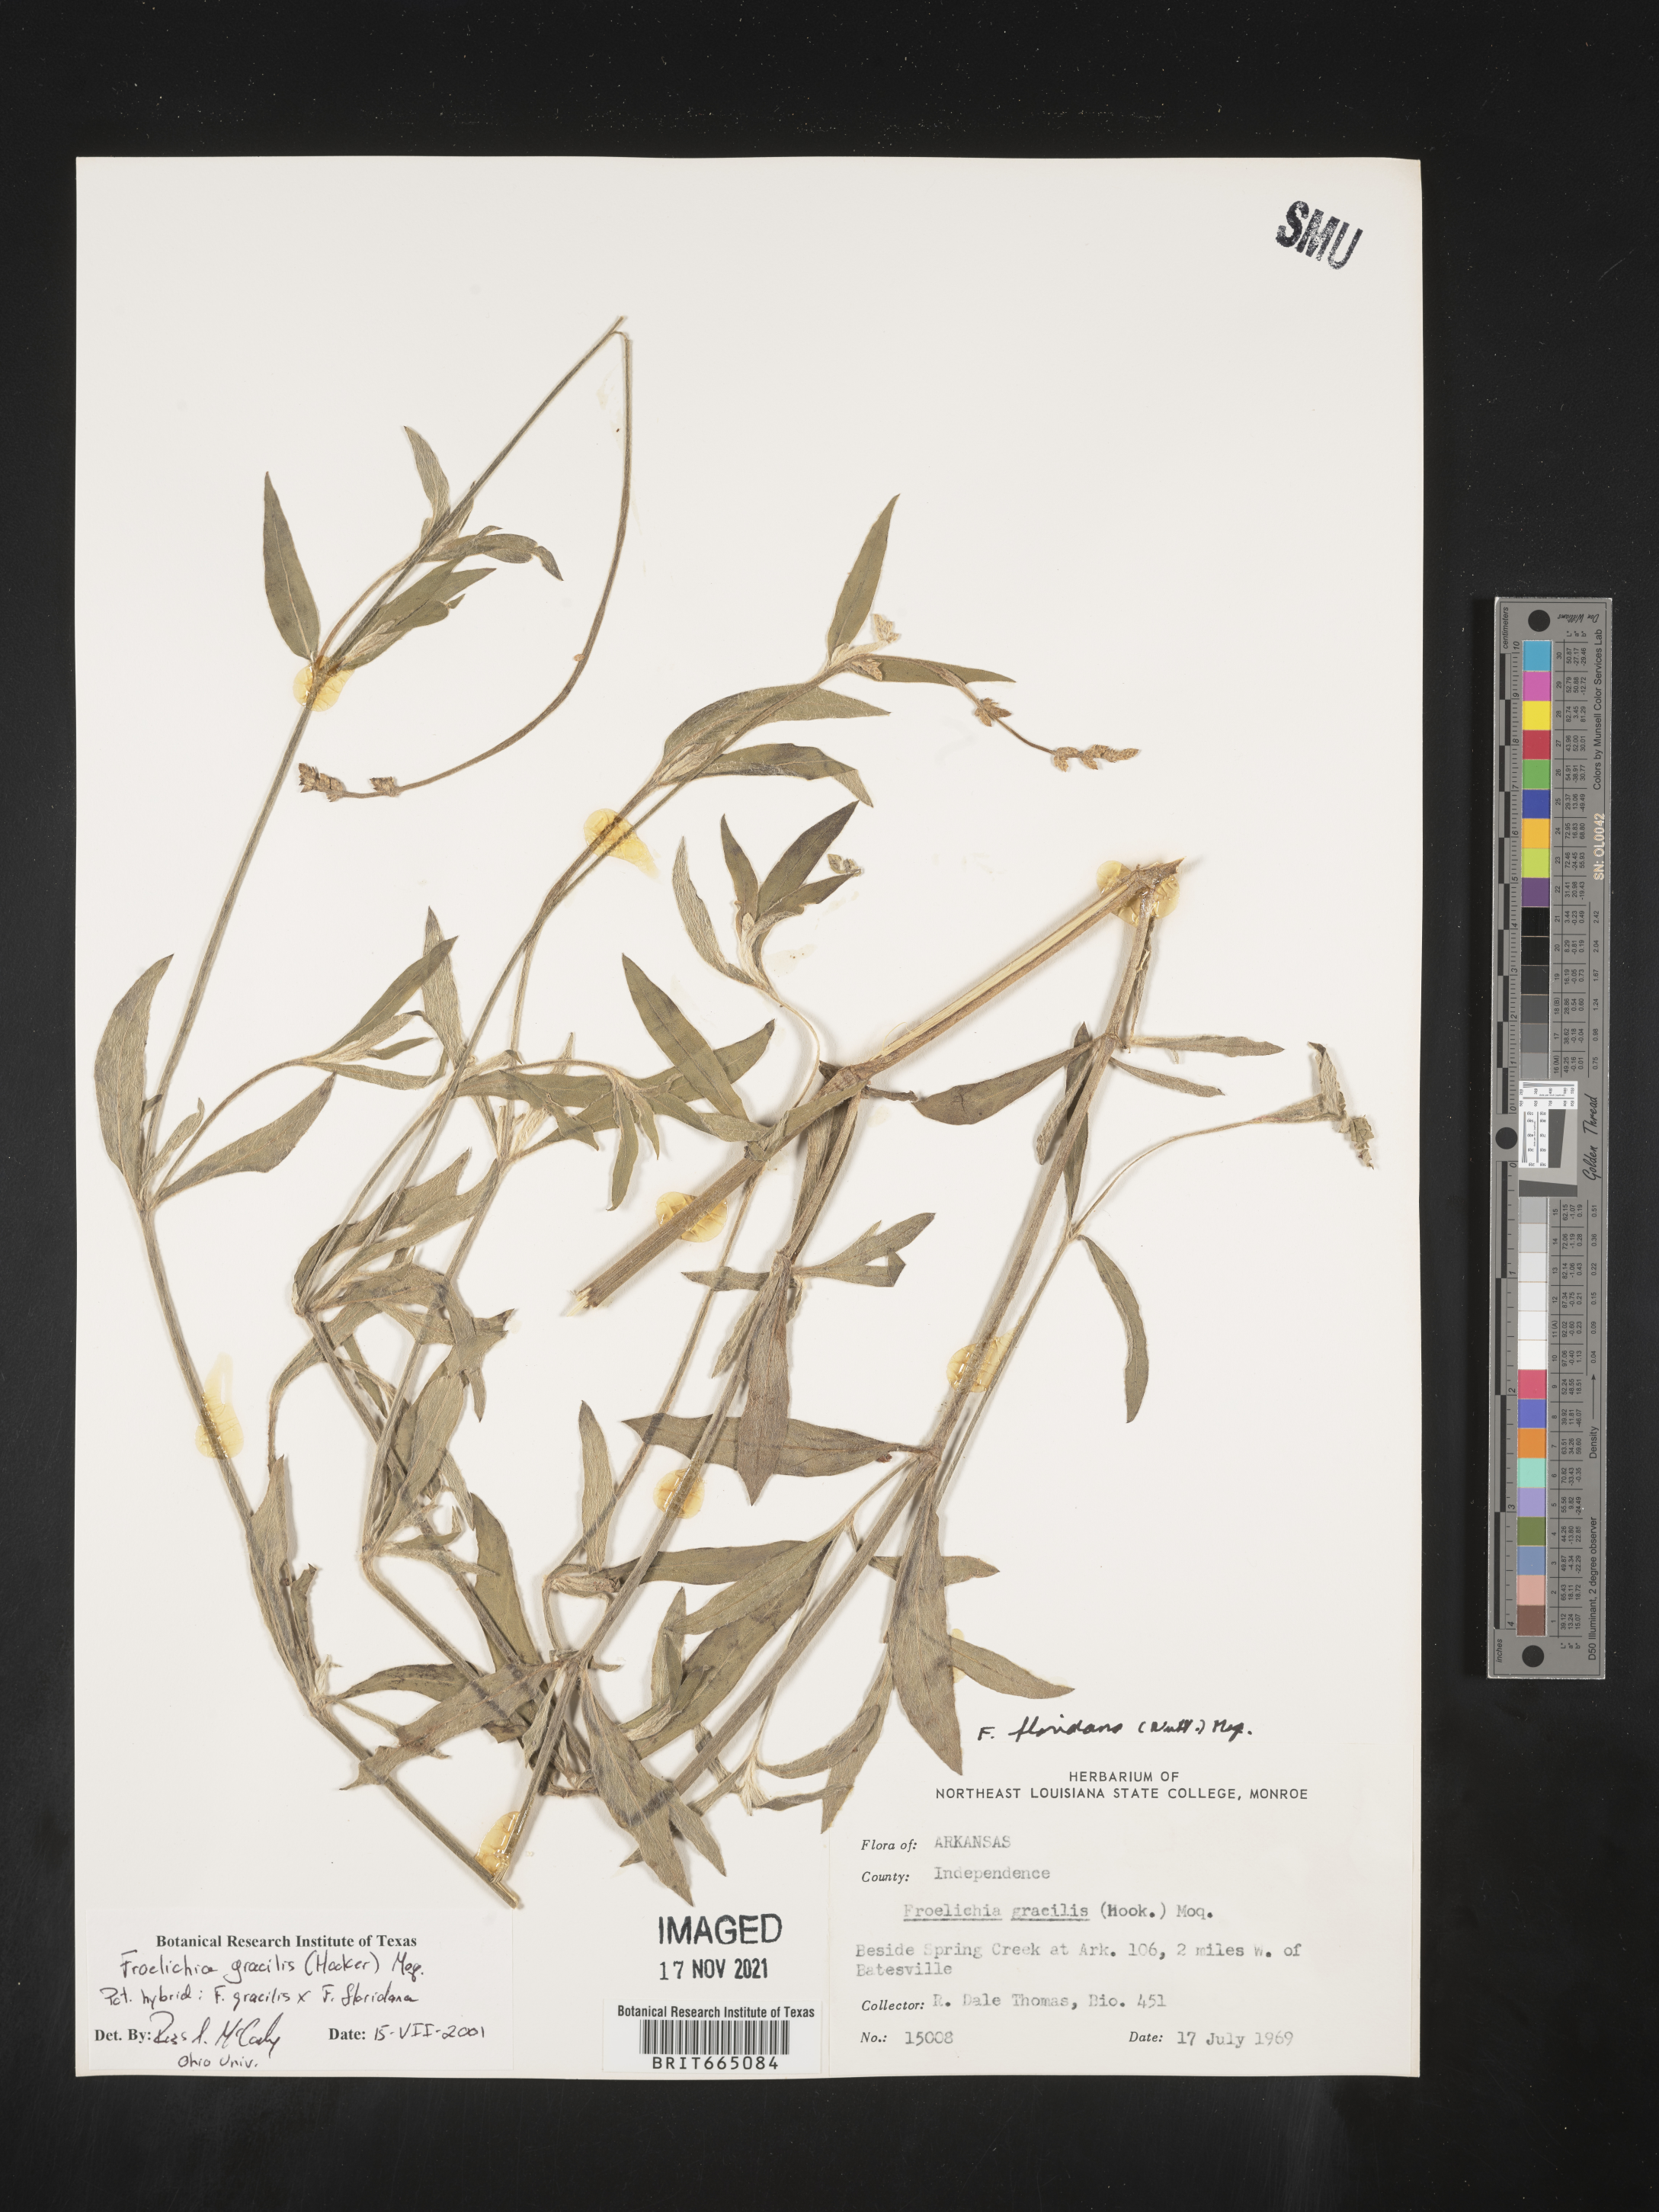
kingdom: Plantae
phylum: Tracheophyta
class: Magnoliopsida
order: Caryophyllales
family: Amaranthaceae
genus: Froelichia
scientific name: Froelichia gracilis
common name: Slender cottonweed
